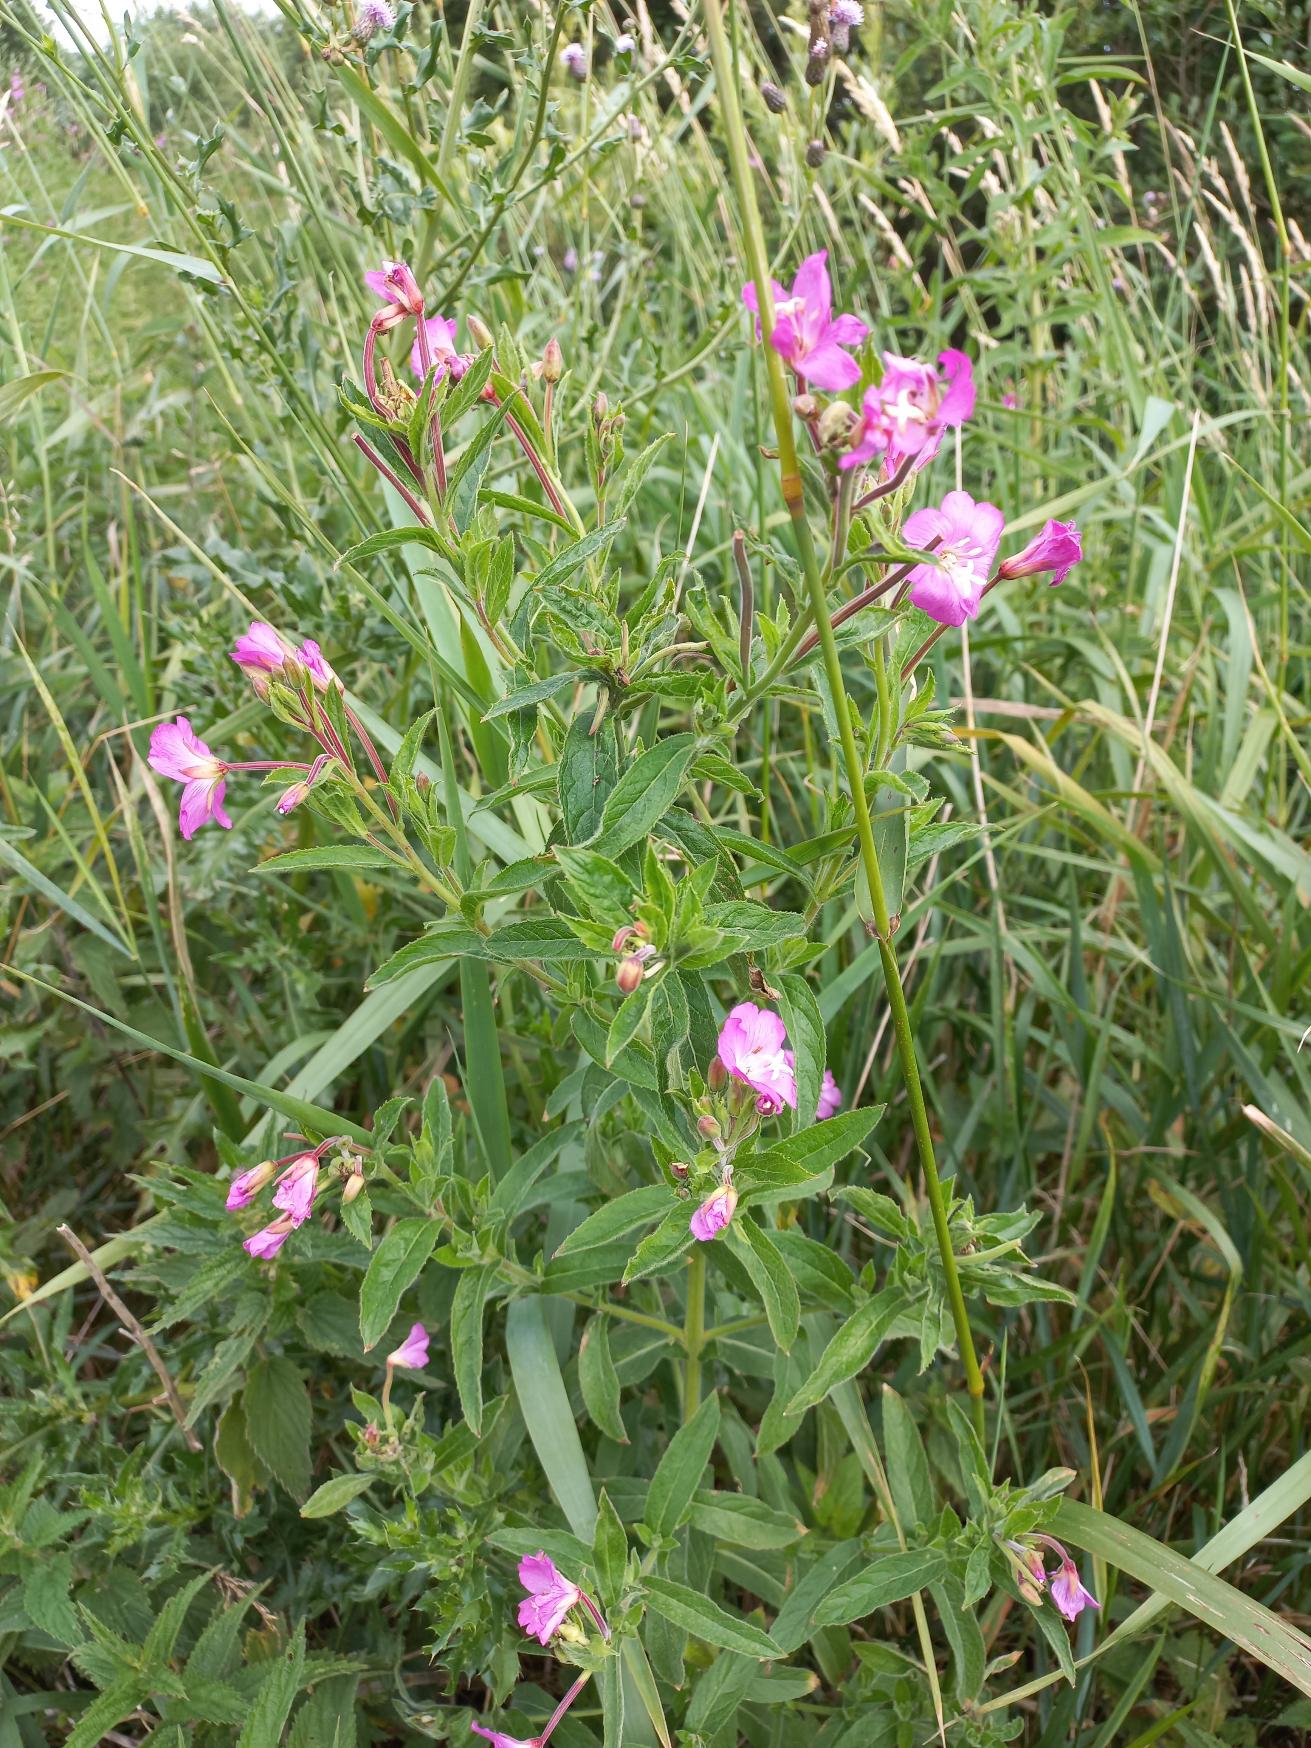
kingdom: Plantae
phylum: Tracheophyta
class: Magnoliopsida
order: Myrtales
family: Onagraceae
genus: Epilobium
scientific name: Epilobium hirsutum
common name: Lådden dueurt
